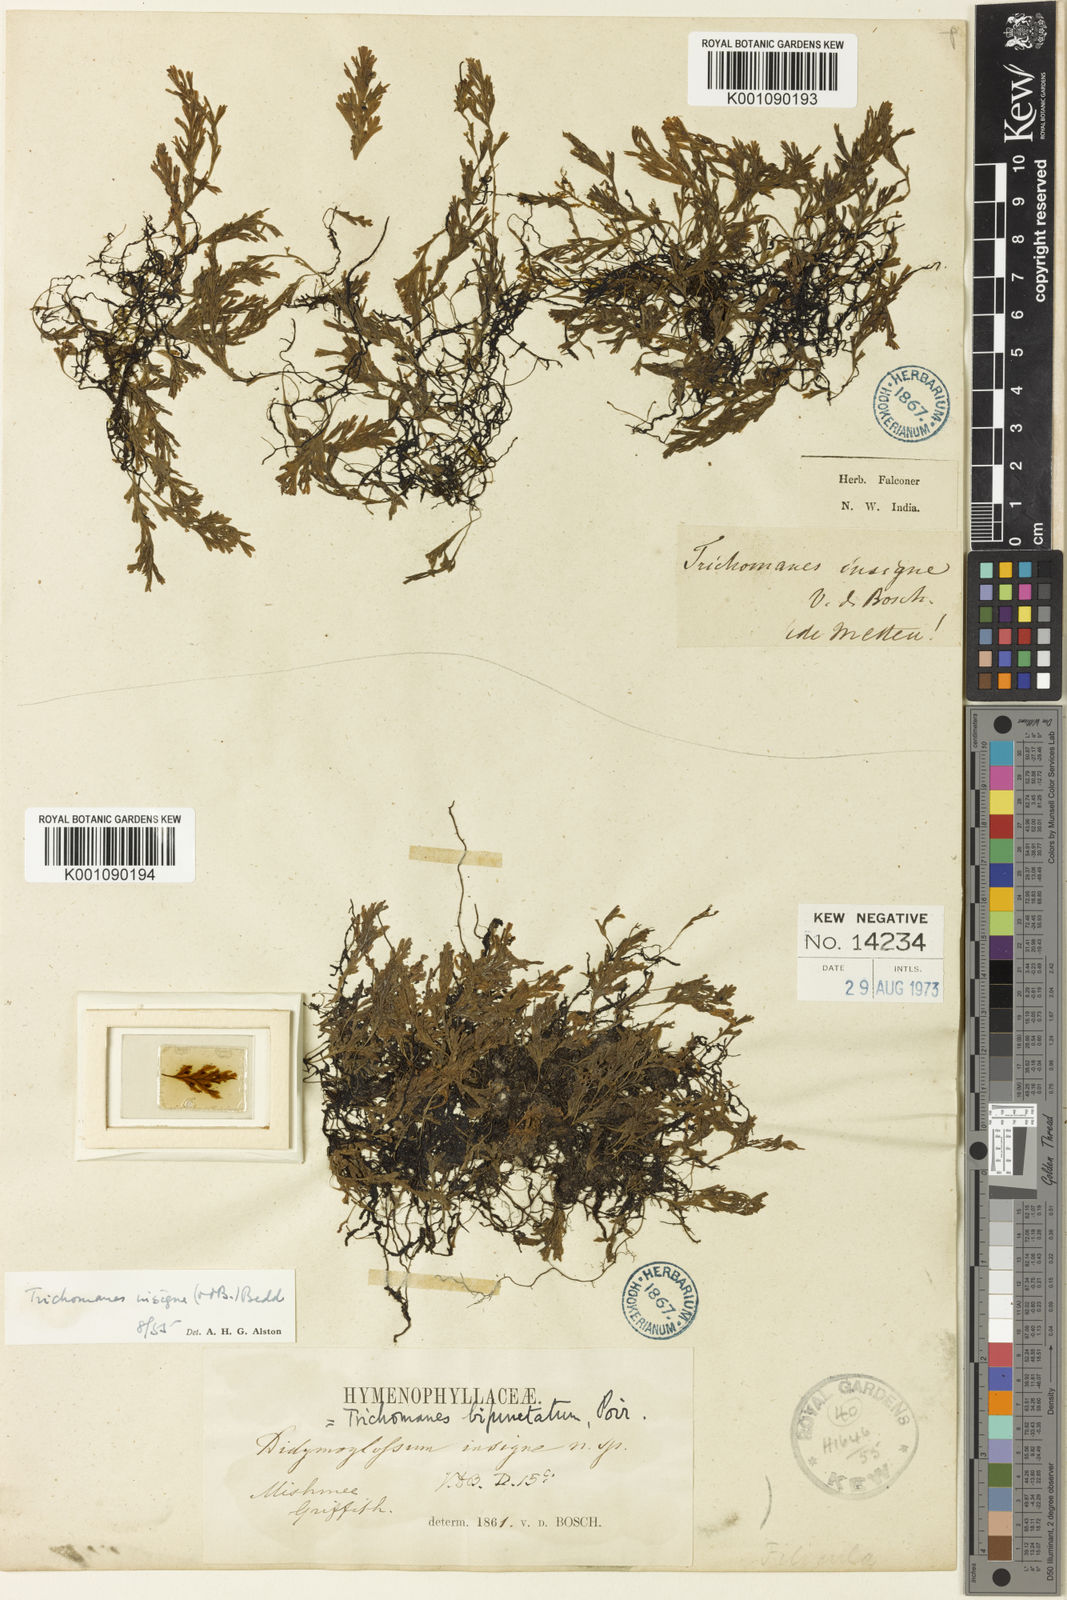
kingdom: Plantae
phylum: Tracheophyta
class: Polypodiopsida
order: Hymenophyllales
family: Hymenophyllaceae
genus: Crepidomanes
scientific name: Crepidomanes latealatum
